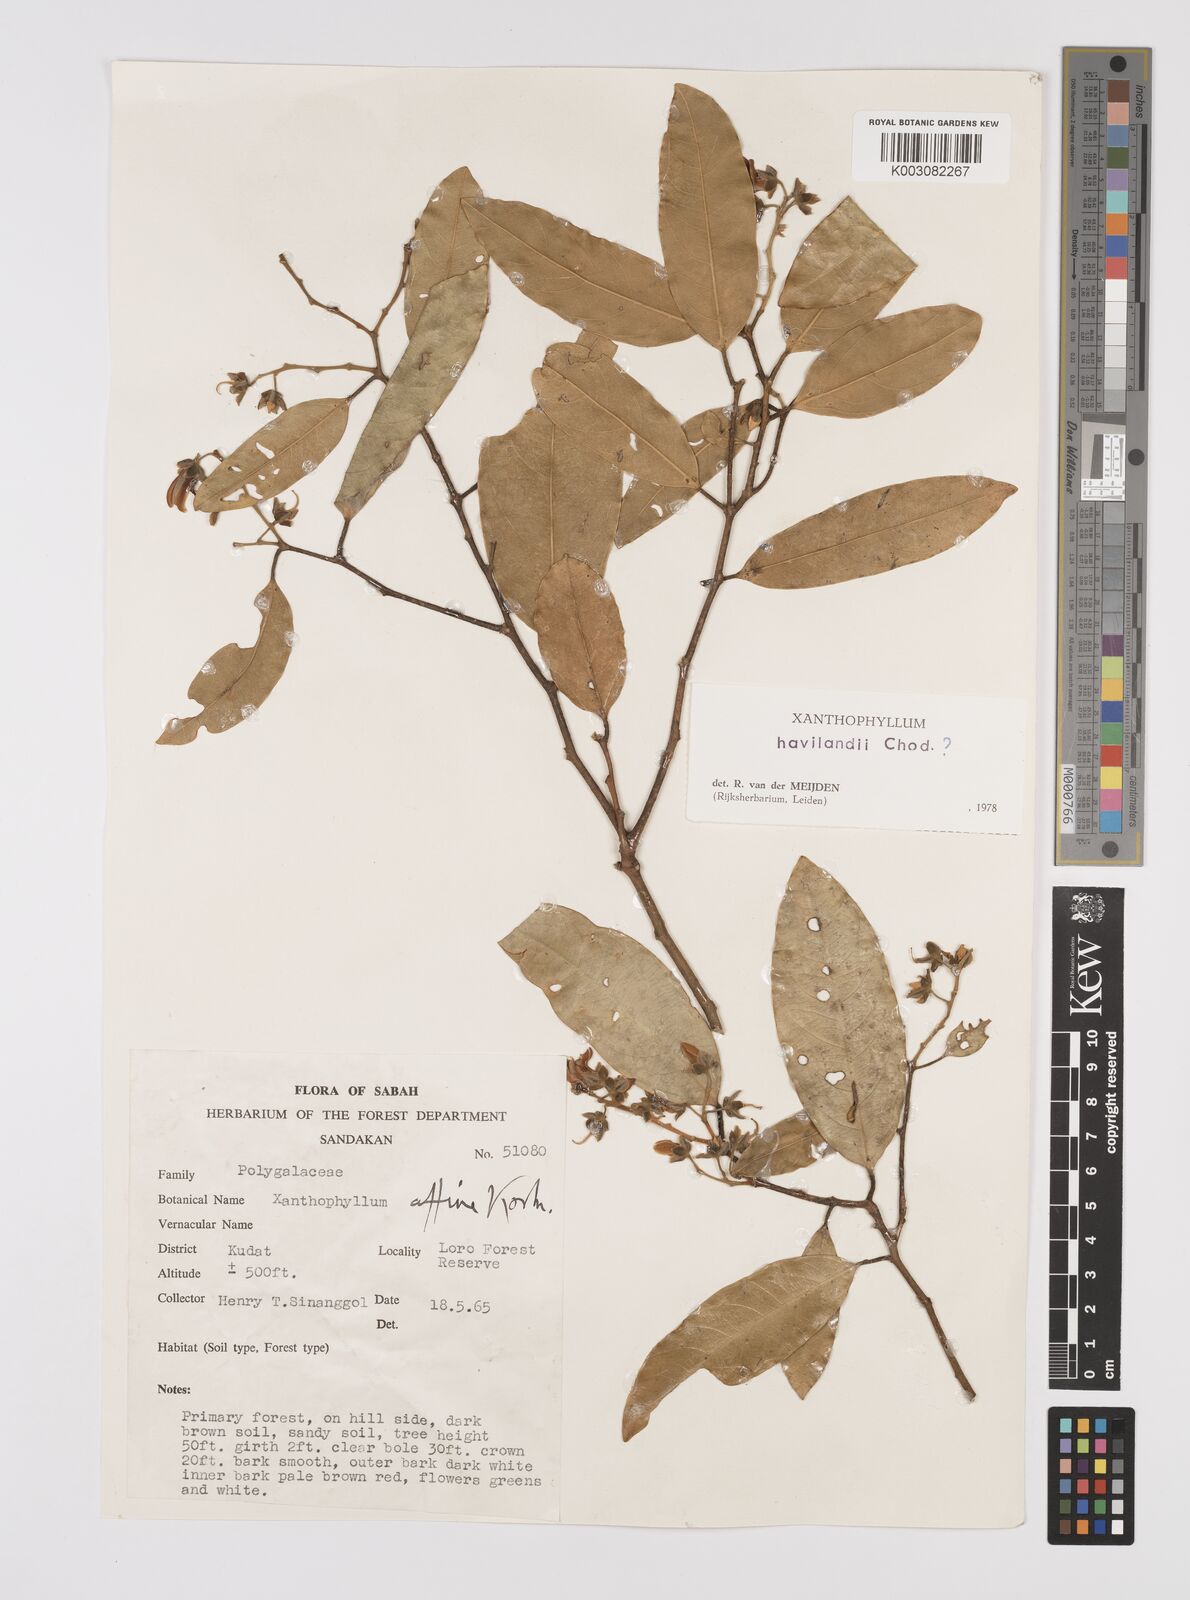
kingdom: Plantae
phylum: Tracheophyta
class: Magnoliopsida
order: Fabales
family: Polygalaceae
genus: Xanthophyllum
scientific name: Xanthophyllum flavescens
